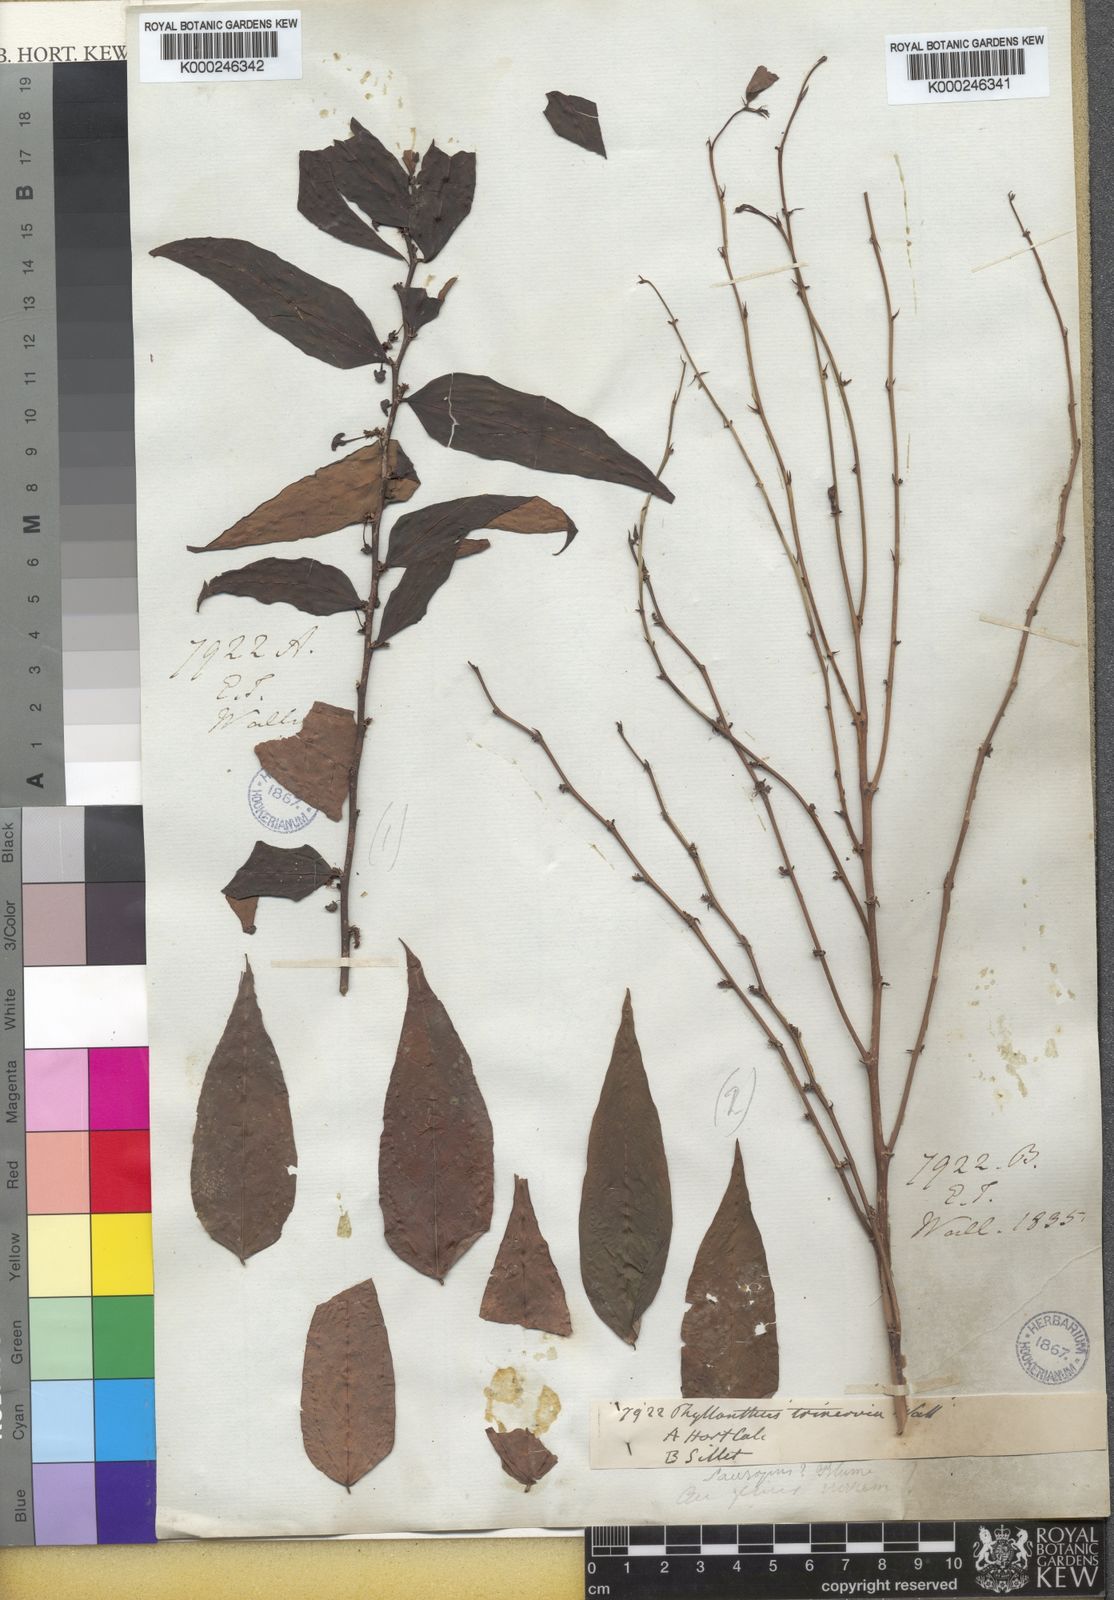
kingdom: Animalia
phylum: Chordata
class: Amphibia
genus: Sauropus
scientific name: Sauropus
